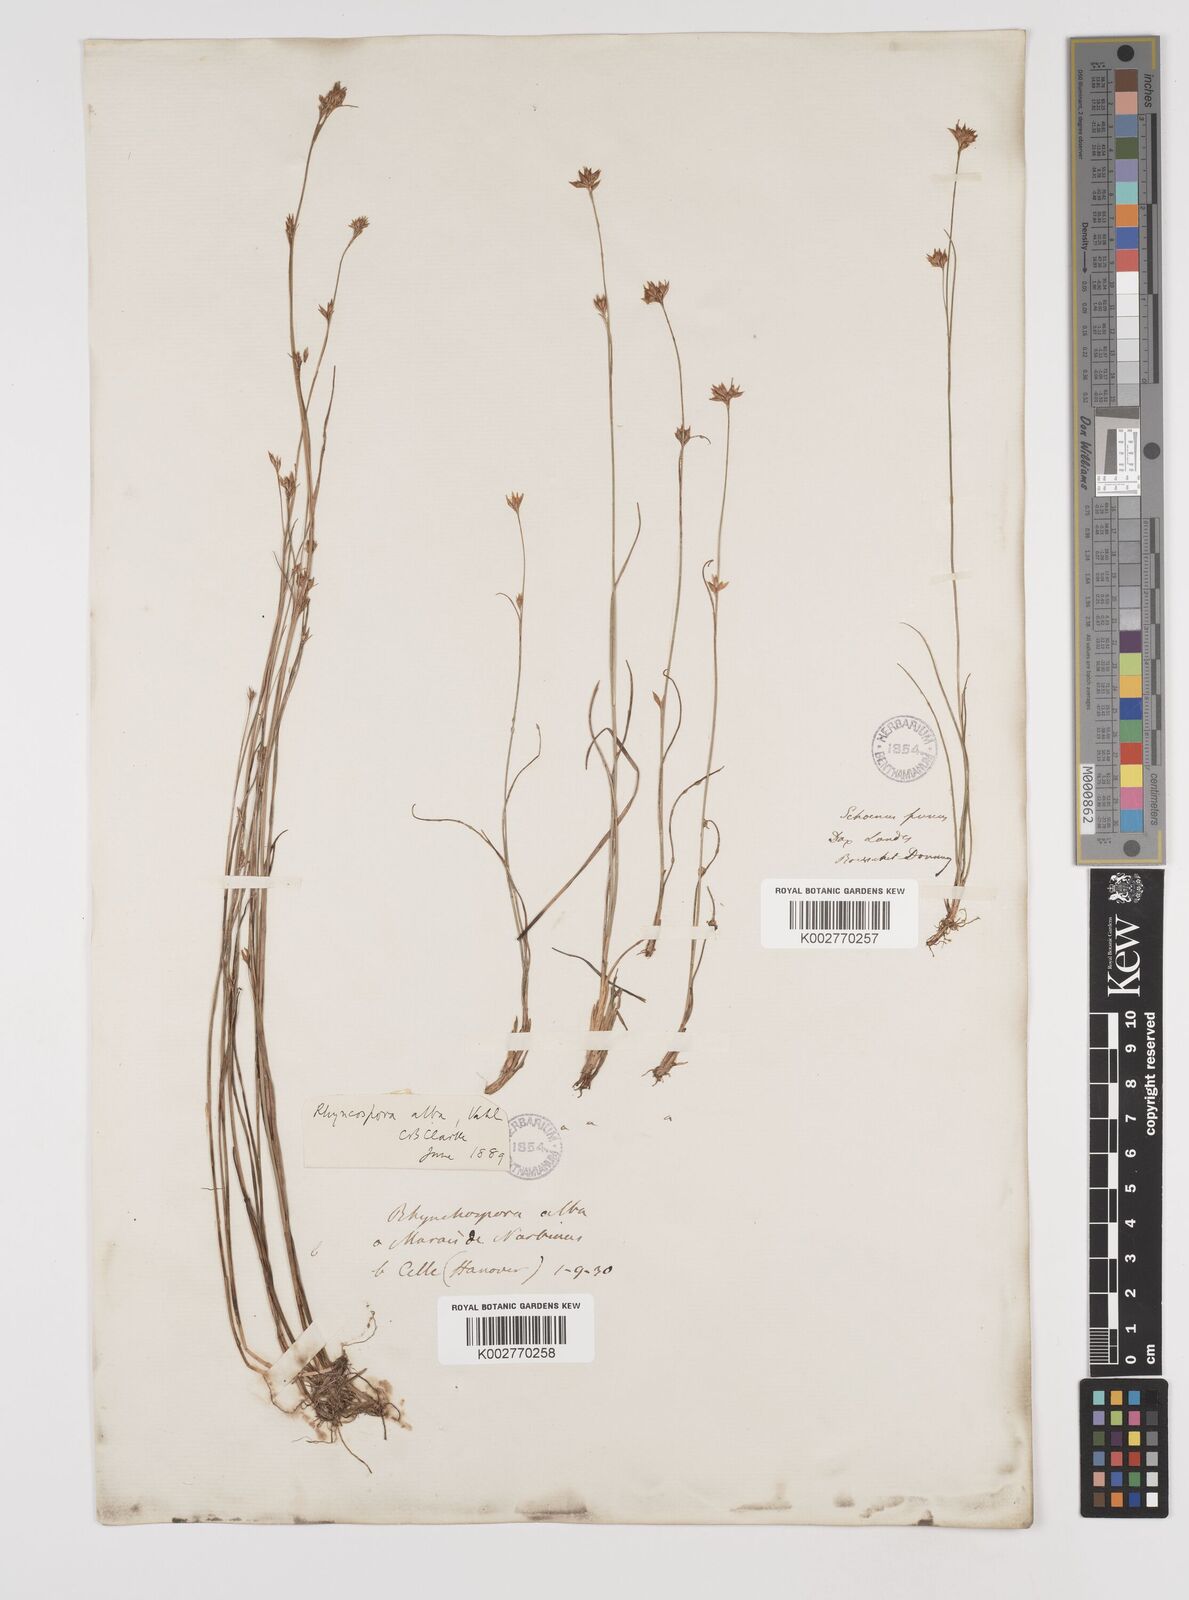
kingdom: Plantae
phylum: Tracheophyta
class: Liliopsida
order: Poales
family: Cyperaceae
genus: Rhynchospora
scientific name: Rhynchospora alba
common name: White beak-sedge
